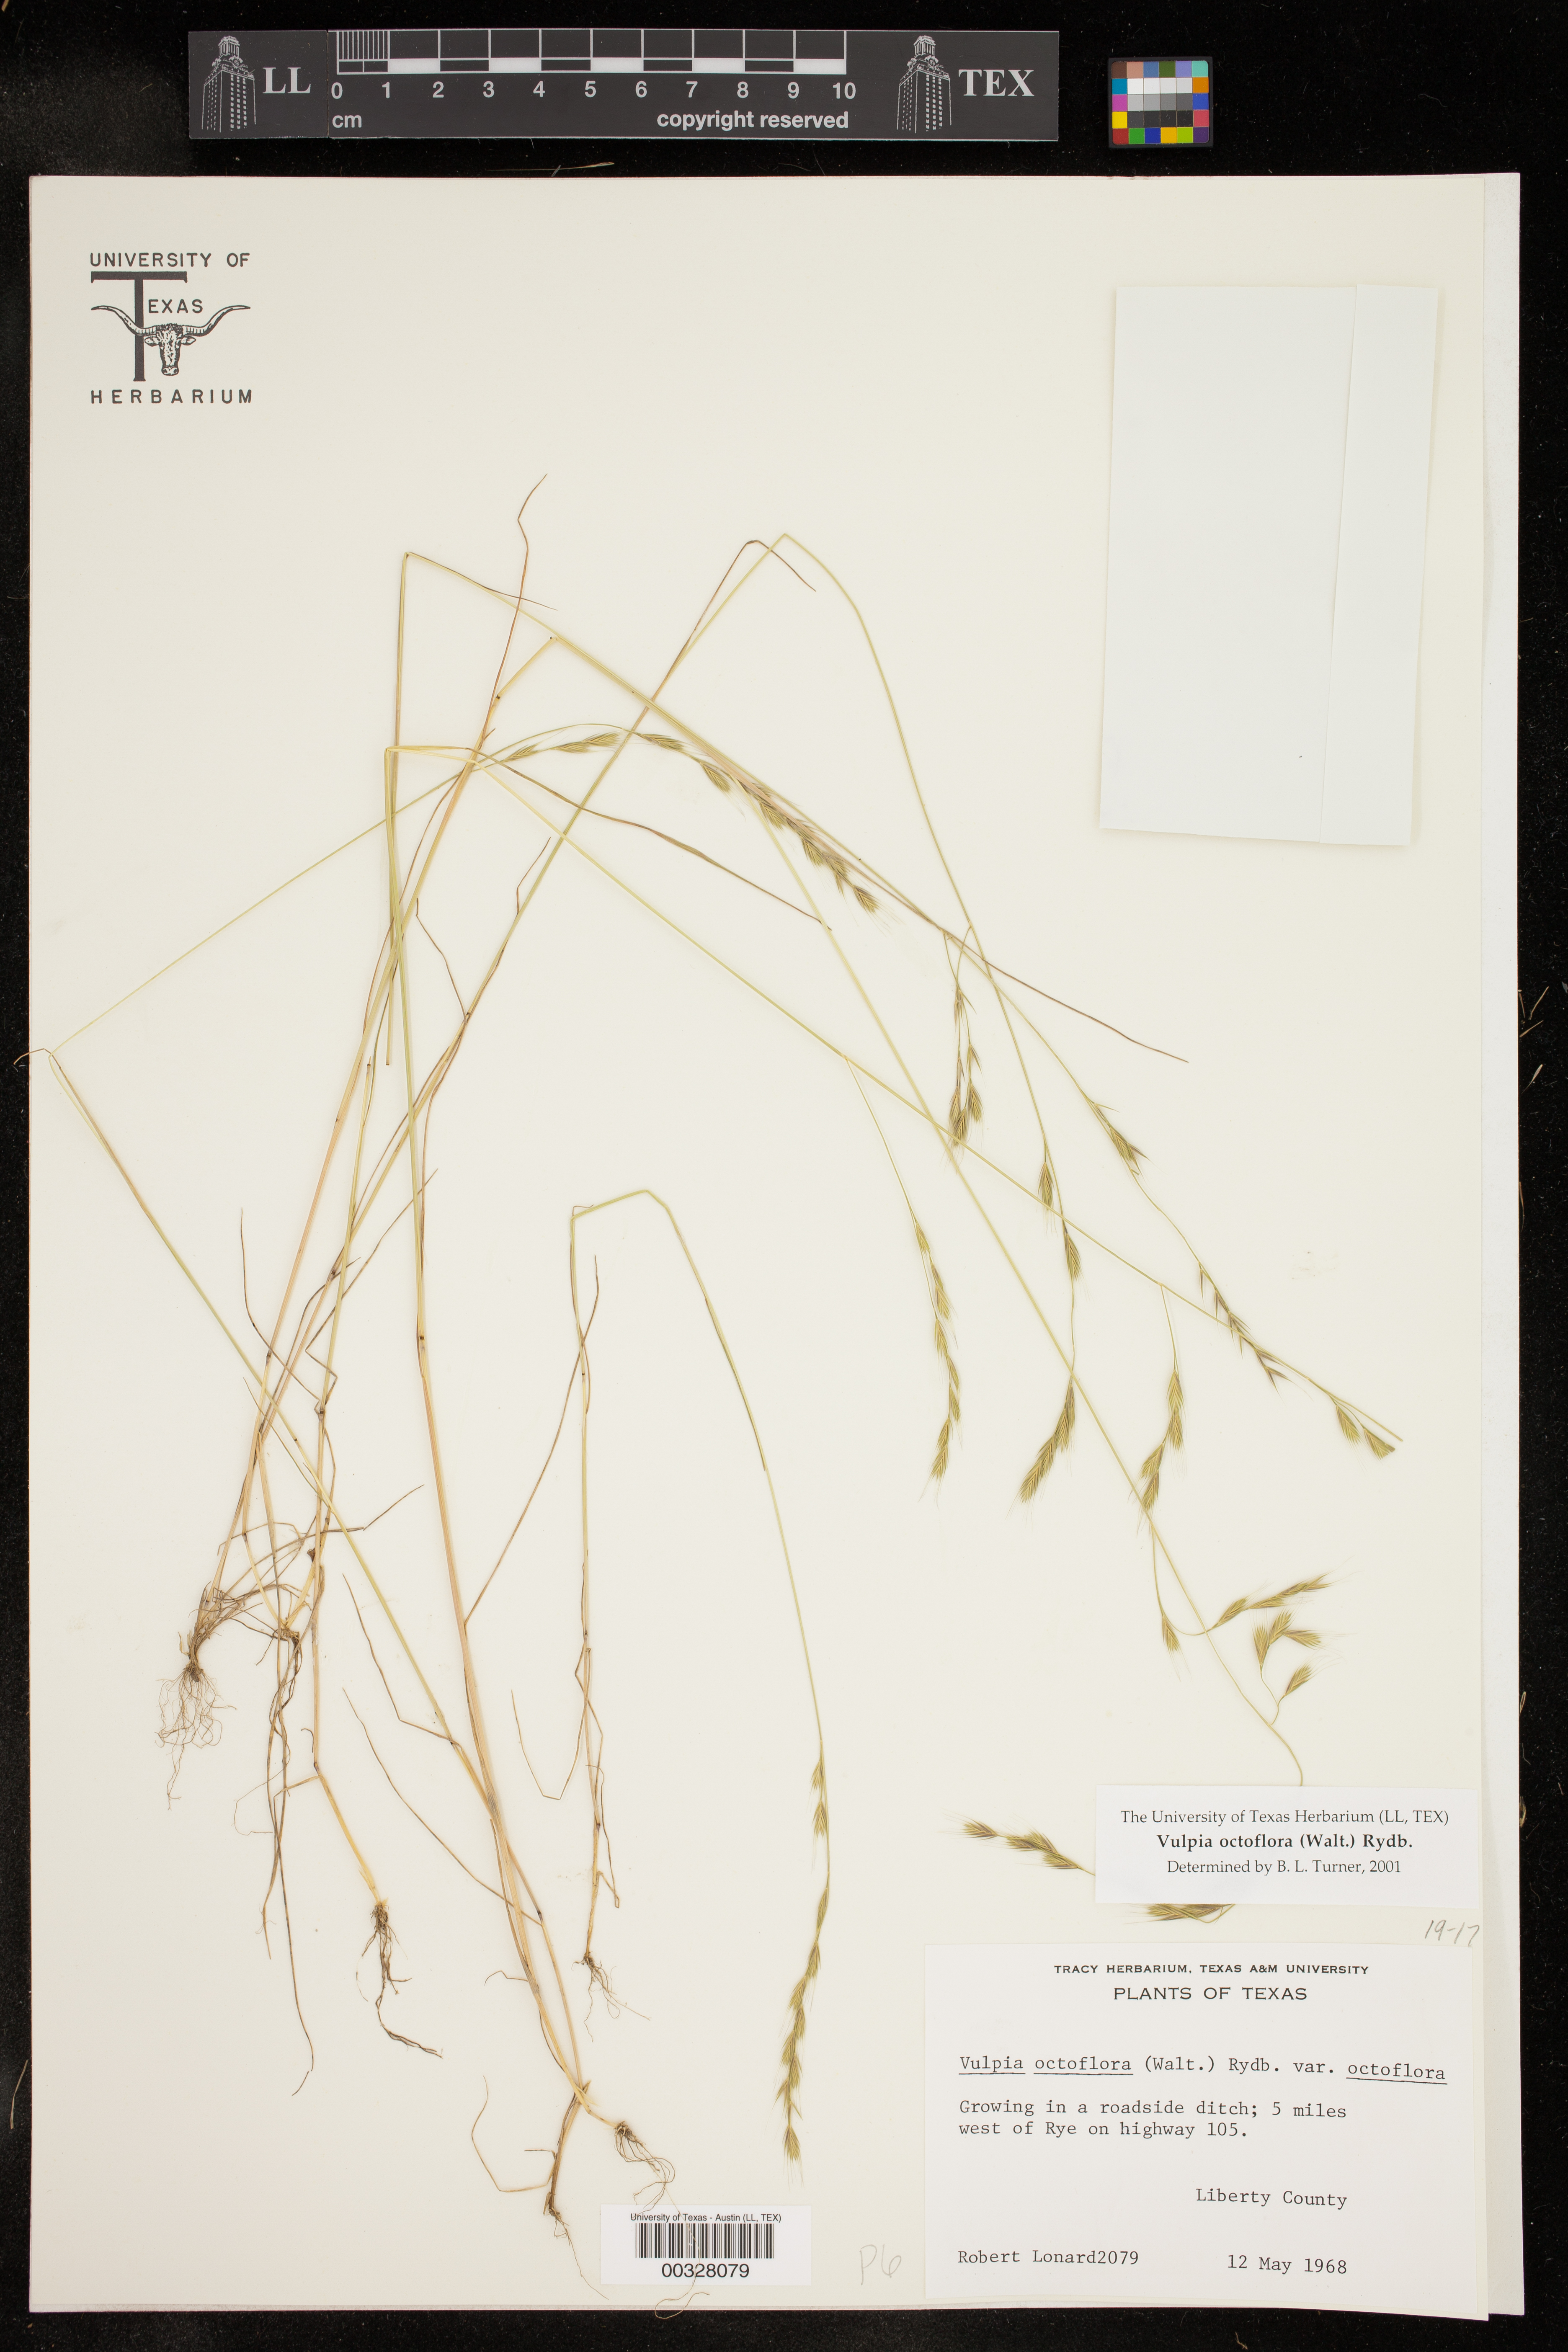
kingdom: Plantae
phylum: Tracheophyta
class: Liliopsida
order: Poales
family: Poaceae
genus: Festuca
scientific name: Festuca octoflora
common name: Sixweeks grass
